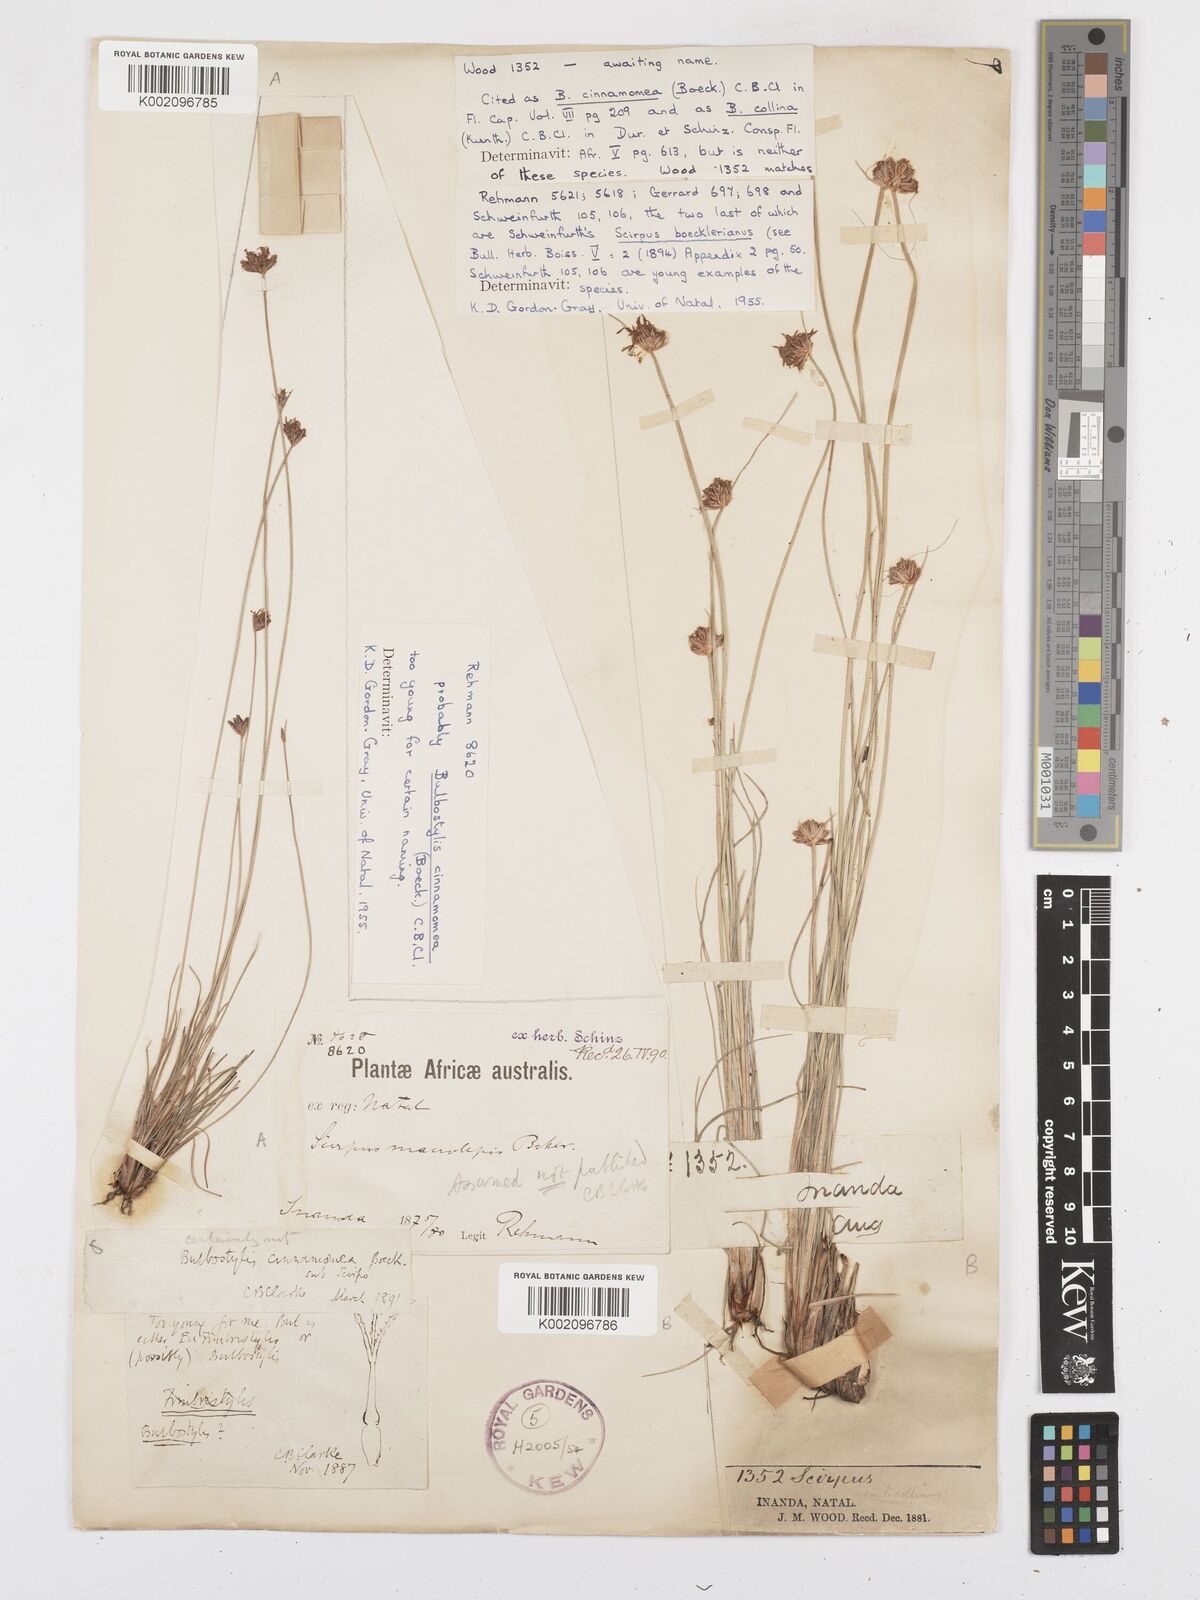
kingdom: Plantae
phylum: Tracheophyta
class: Liliopsida
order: Poales
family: Cyperaceae
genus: Bulbostylis
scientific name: Bulbostylis
